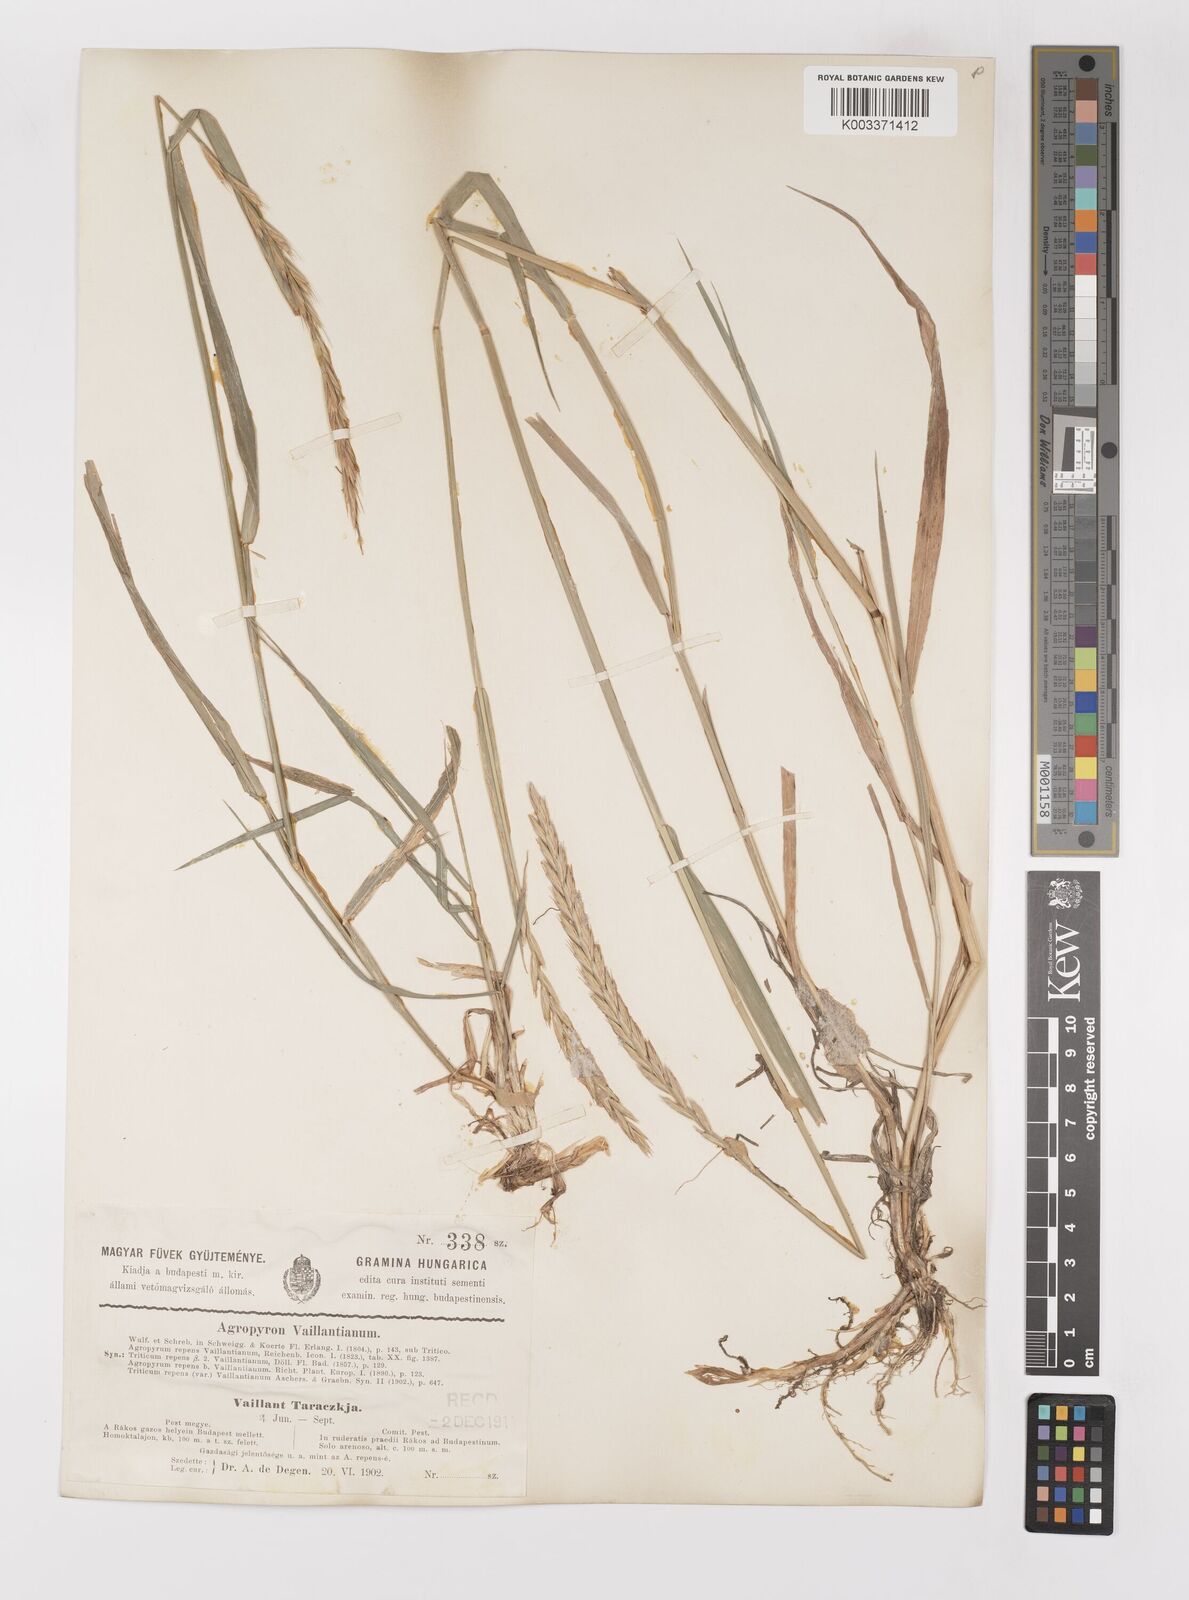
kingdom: Plantae
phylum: Tracheophyta
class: Liliopsida
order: Poales
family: Poaceae
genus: Elymus
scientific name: Elymus repens
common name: Quackgrass
